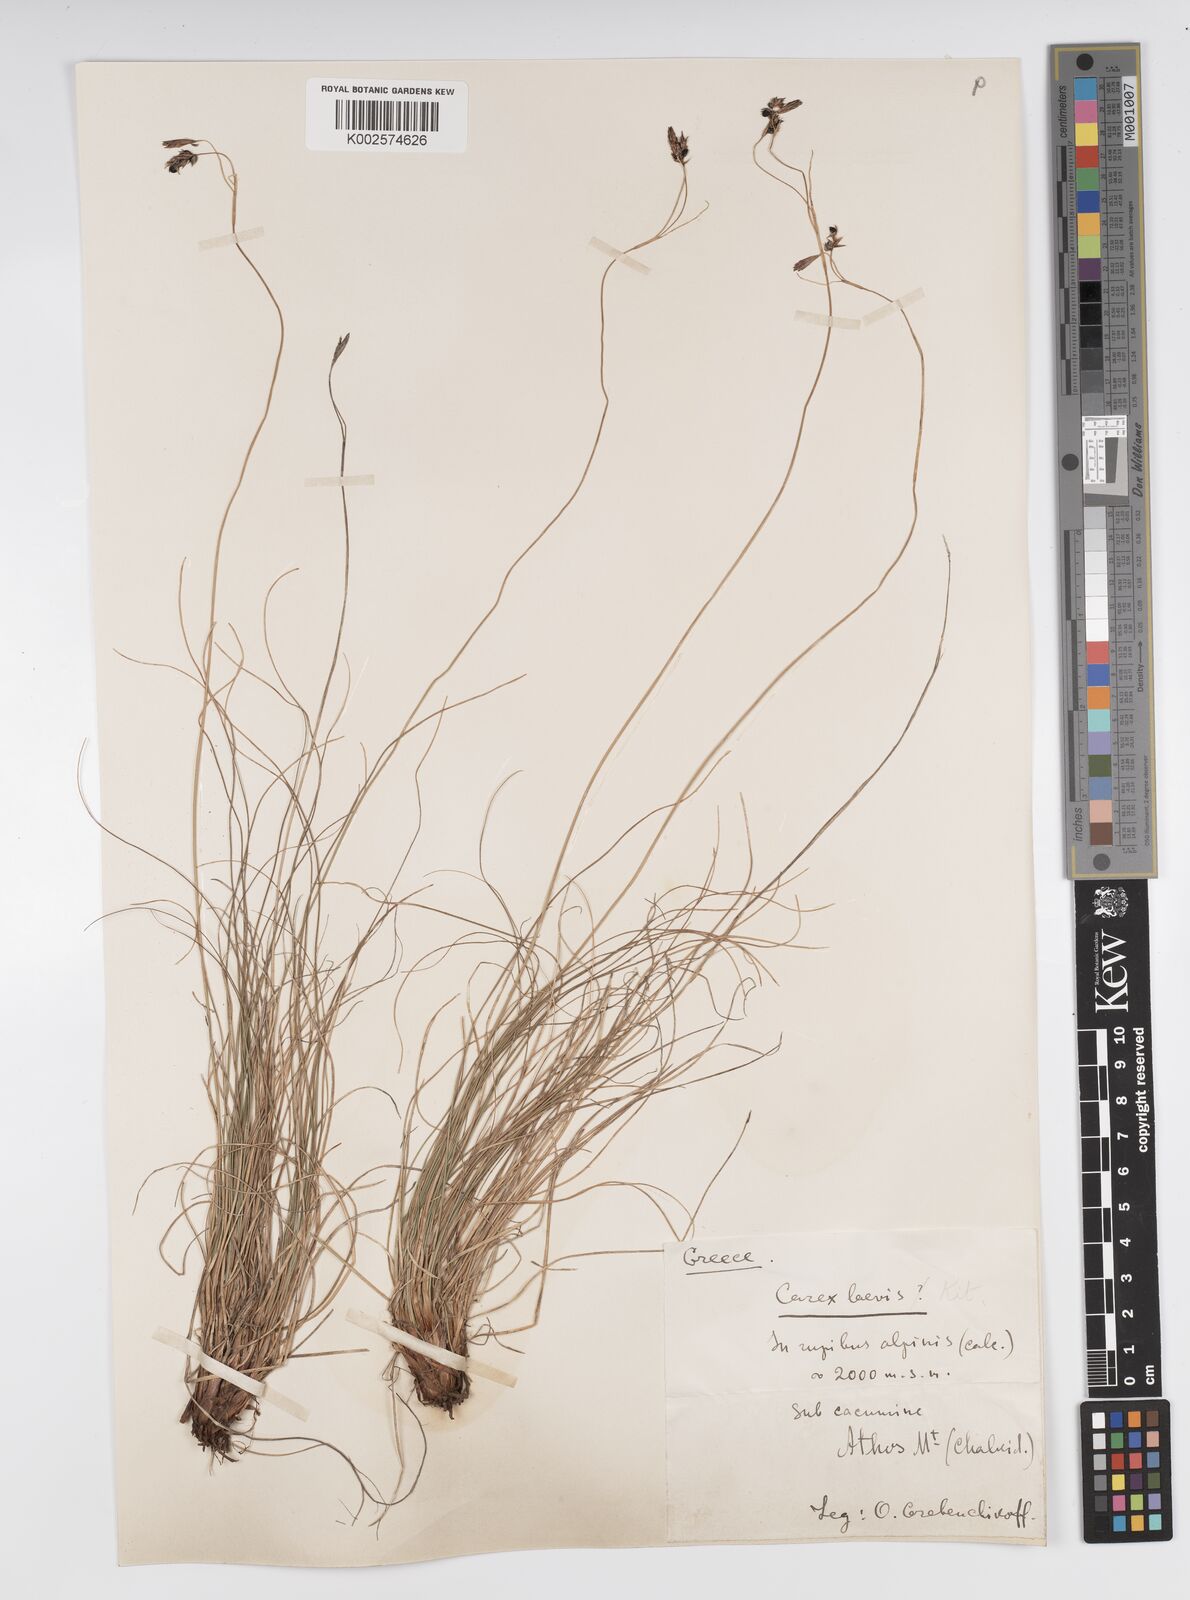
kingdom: Plantae
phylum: Tracheophyta
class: Liliopsida
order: Poales
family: Cyperaceae
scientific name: Cyperaceae
